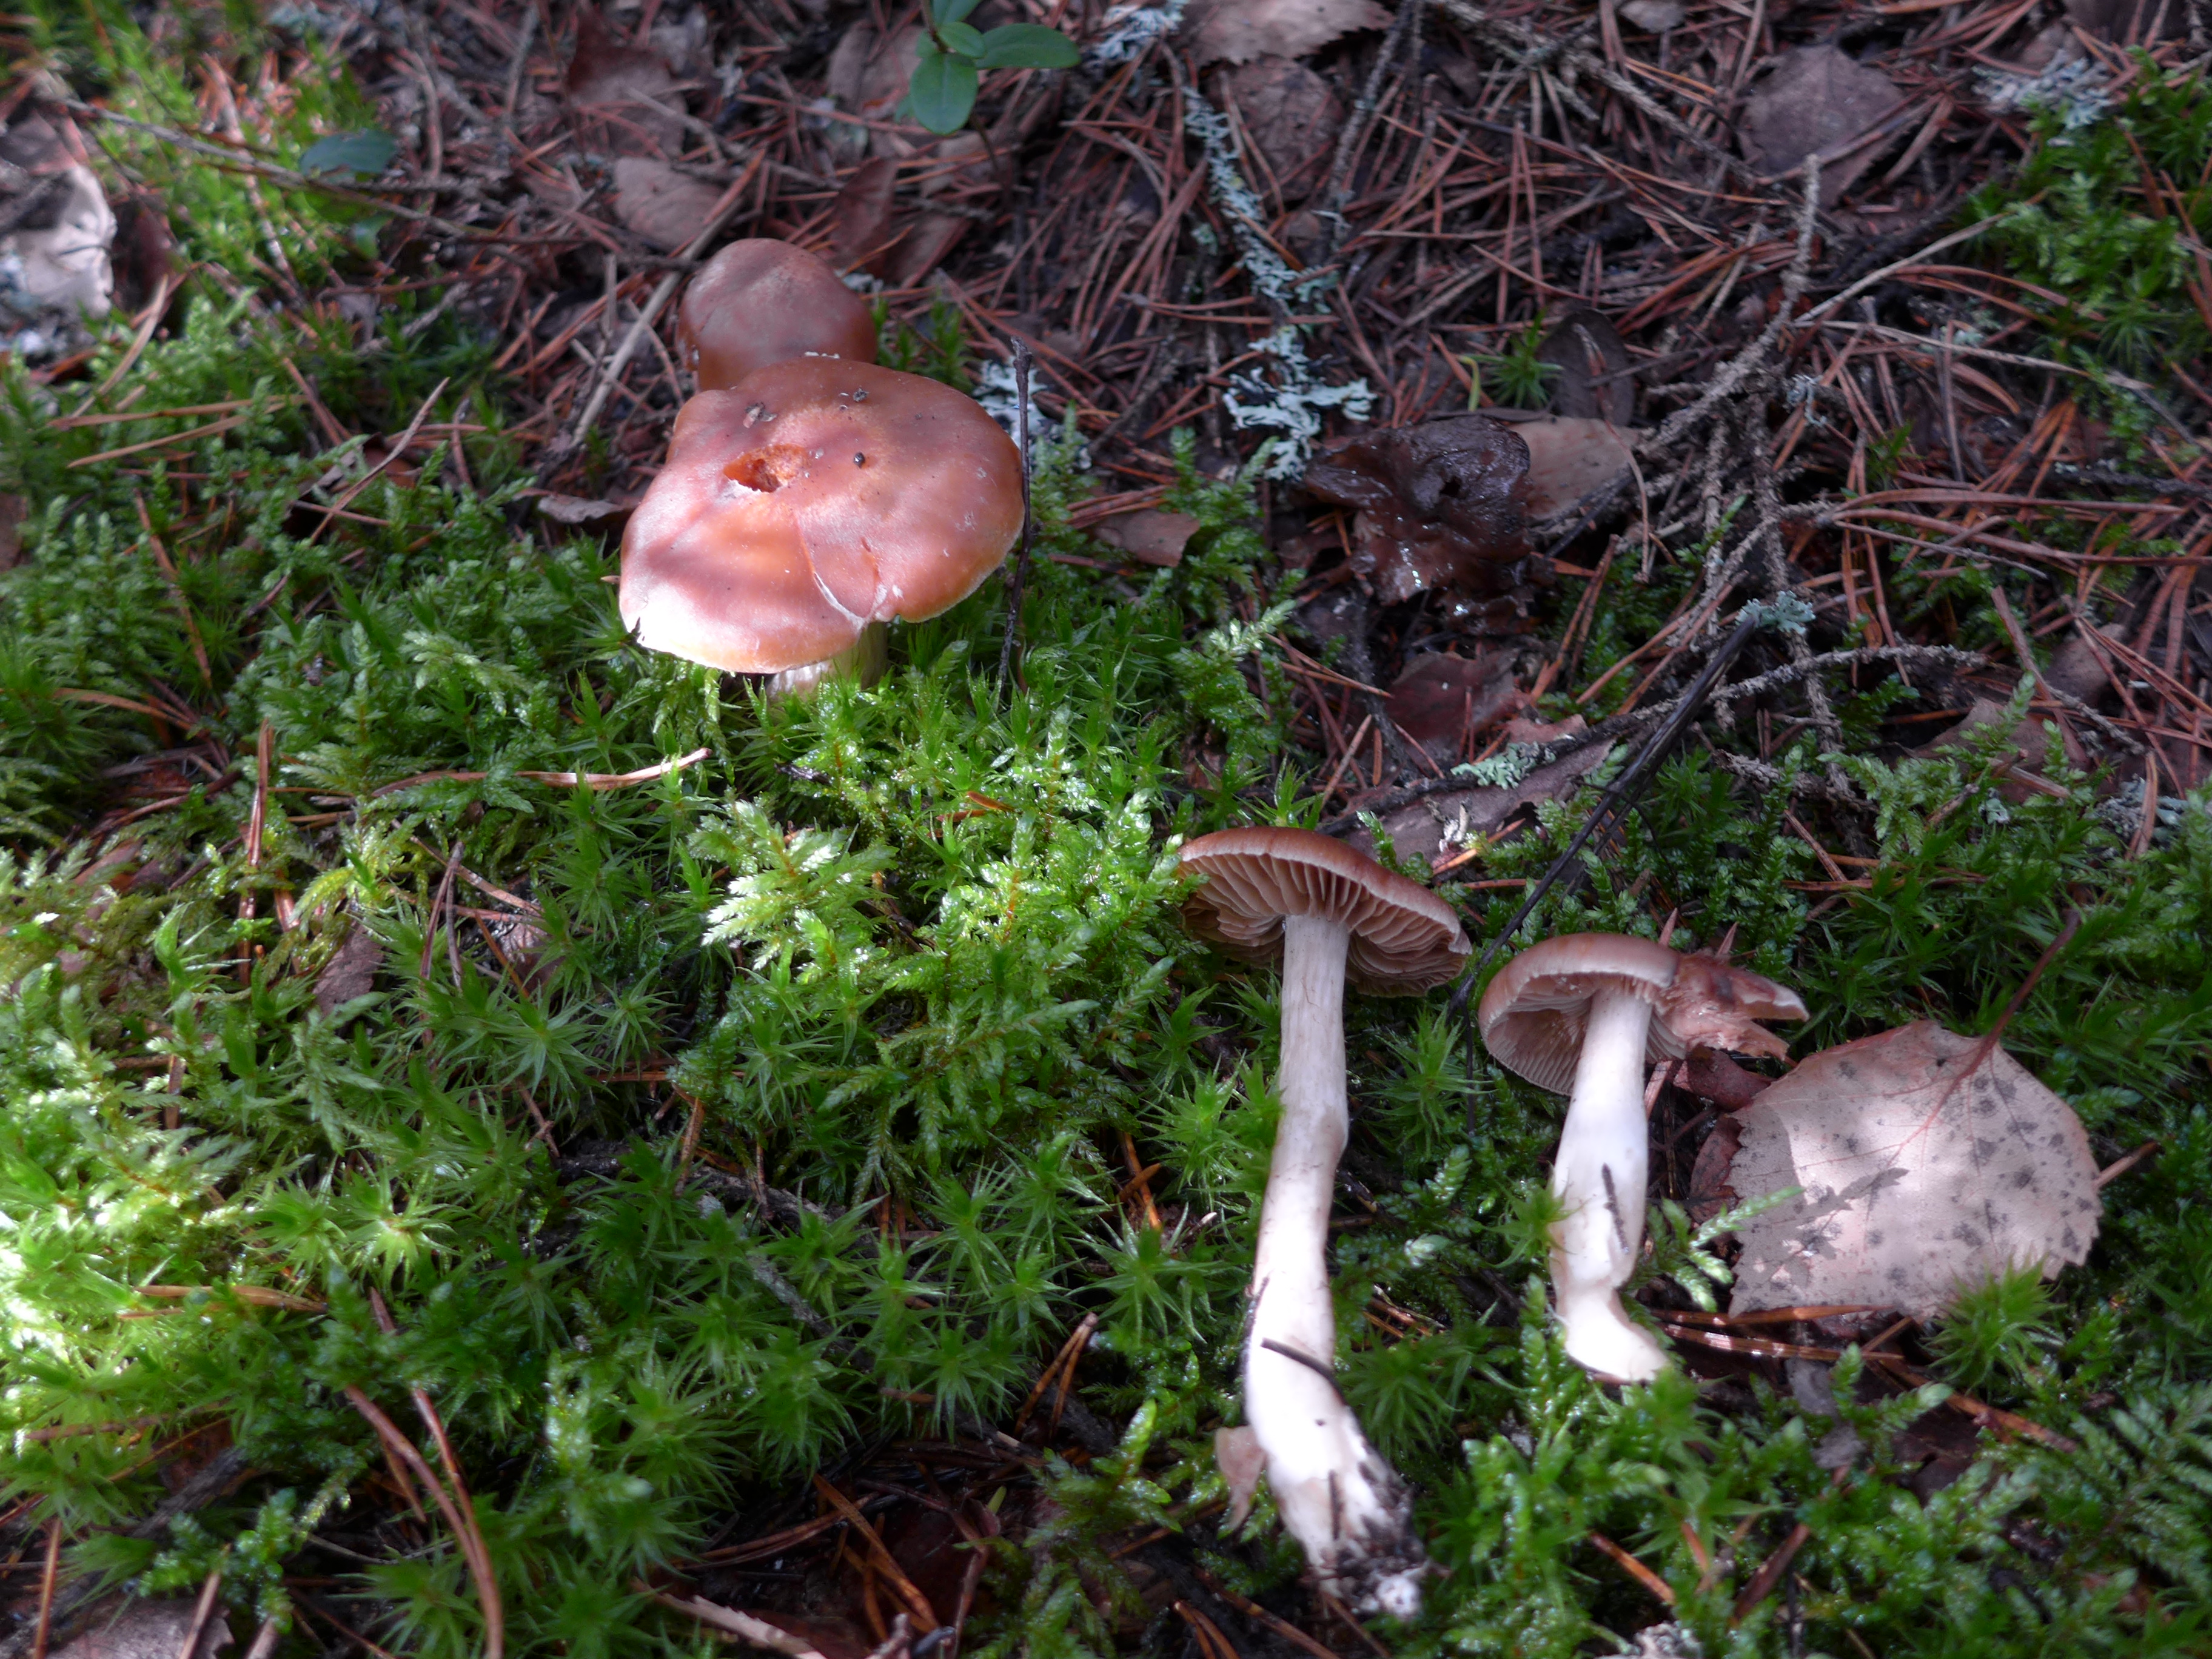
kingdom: Fungi
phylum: Basidiomycota
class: Agaricomycetes
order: Agaricales
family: Cortinariaceae
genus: Cortinarius
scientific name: Cortinarius armeniacus
